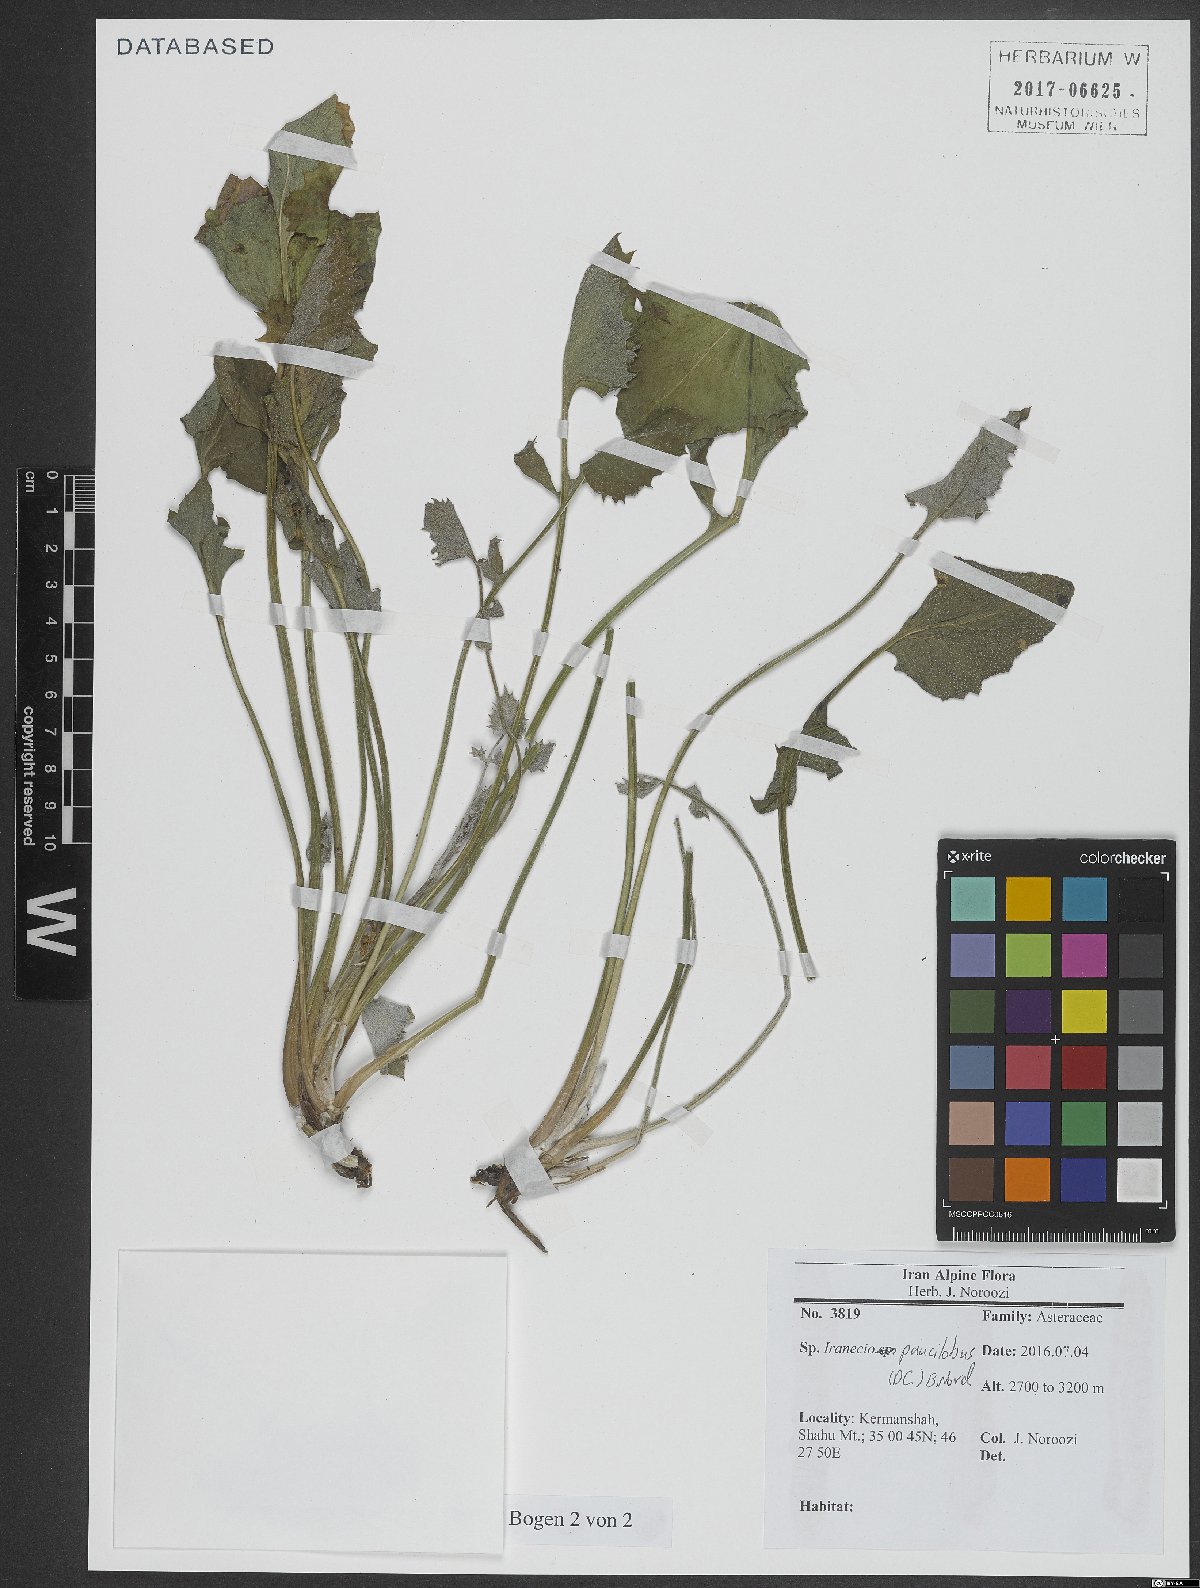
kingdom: Plantae
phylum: Tracheophyta
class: Magnoliopsida
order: Asterales
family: Asteraceae
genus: Iranecio
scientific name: Iranecio paucilobus
